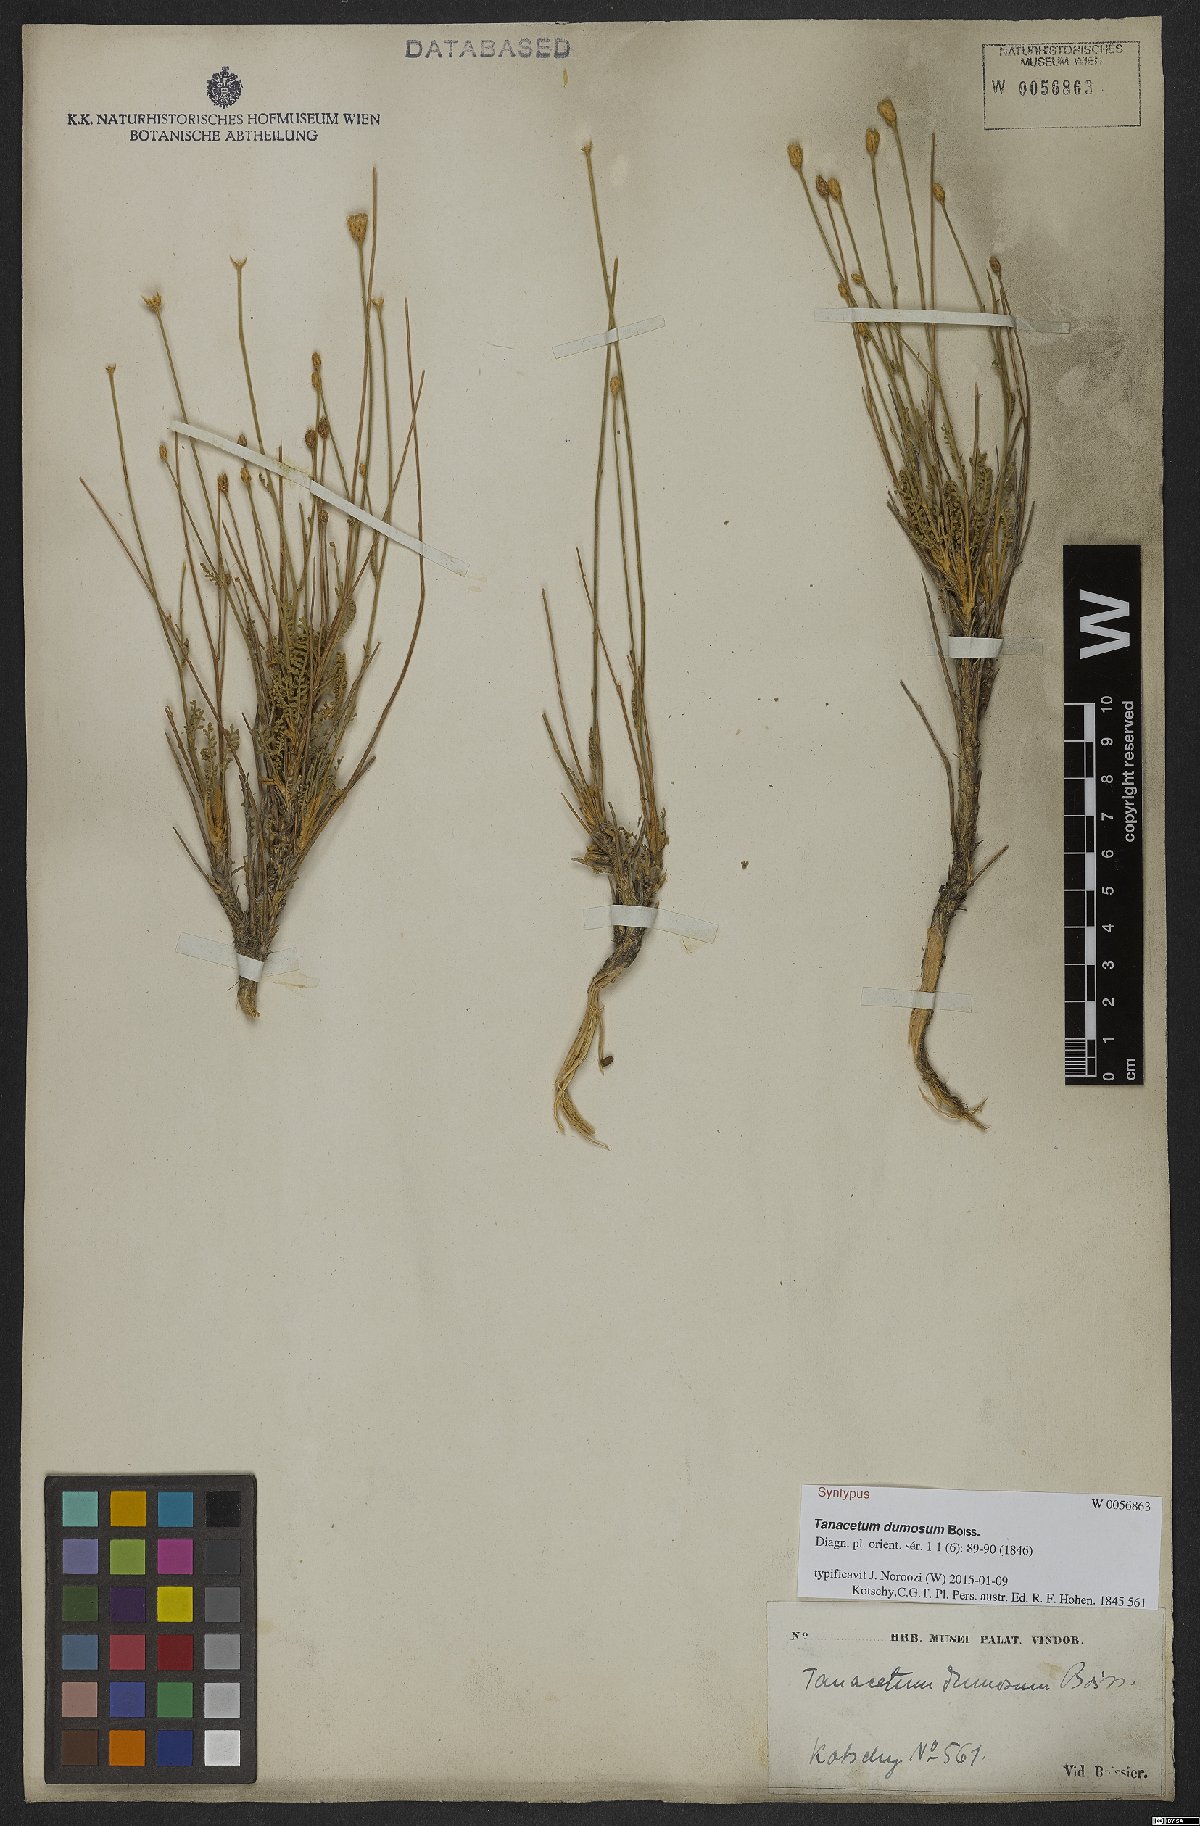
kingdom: Plantae
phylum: Tracheophyta
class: Magnoliopsida
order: Asterales
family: Asteraceae
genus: Tanacetum
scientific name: Tanacetum dumosum
